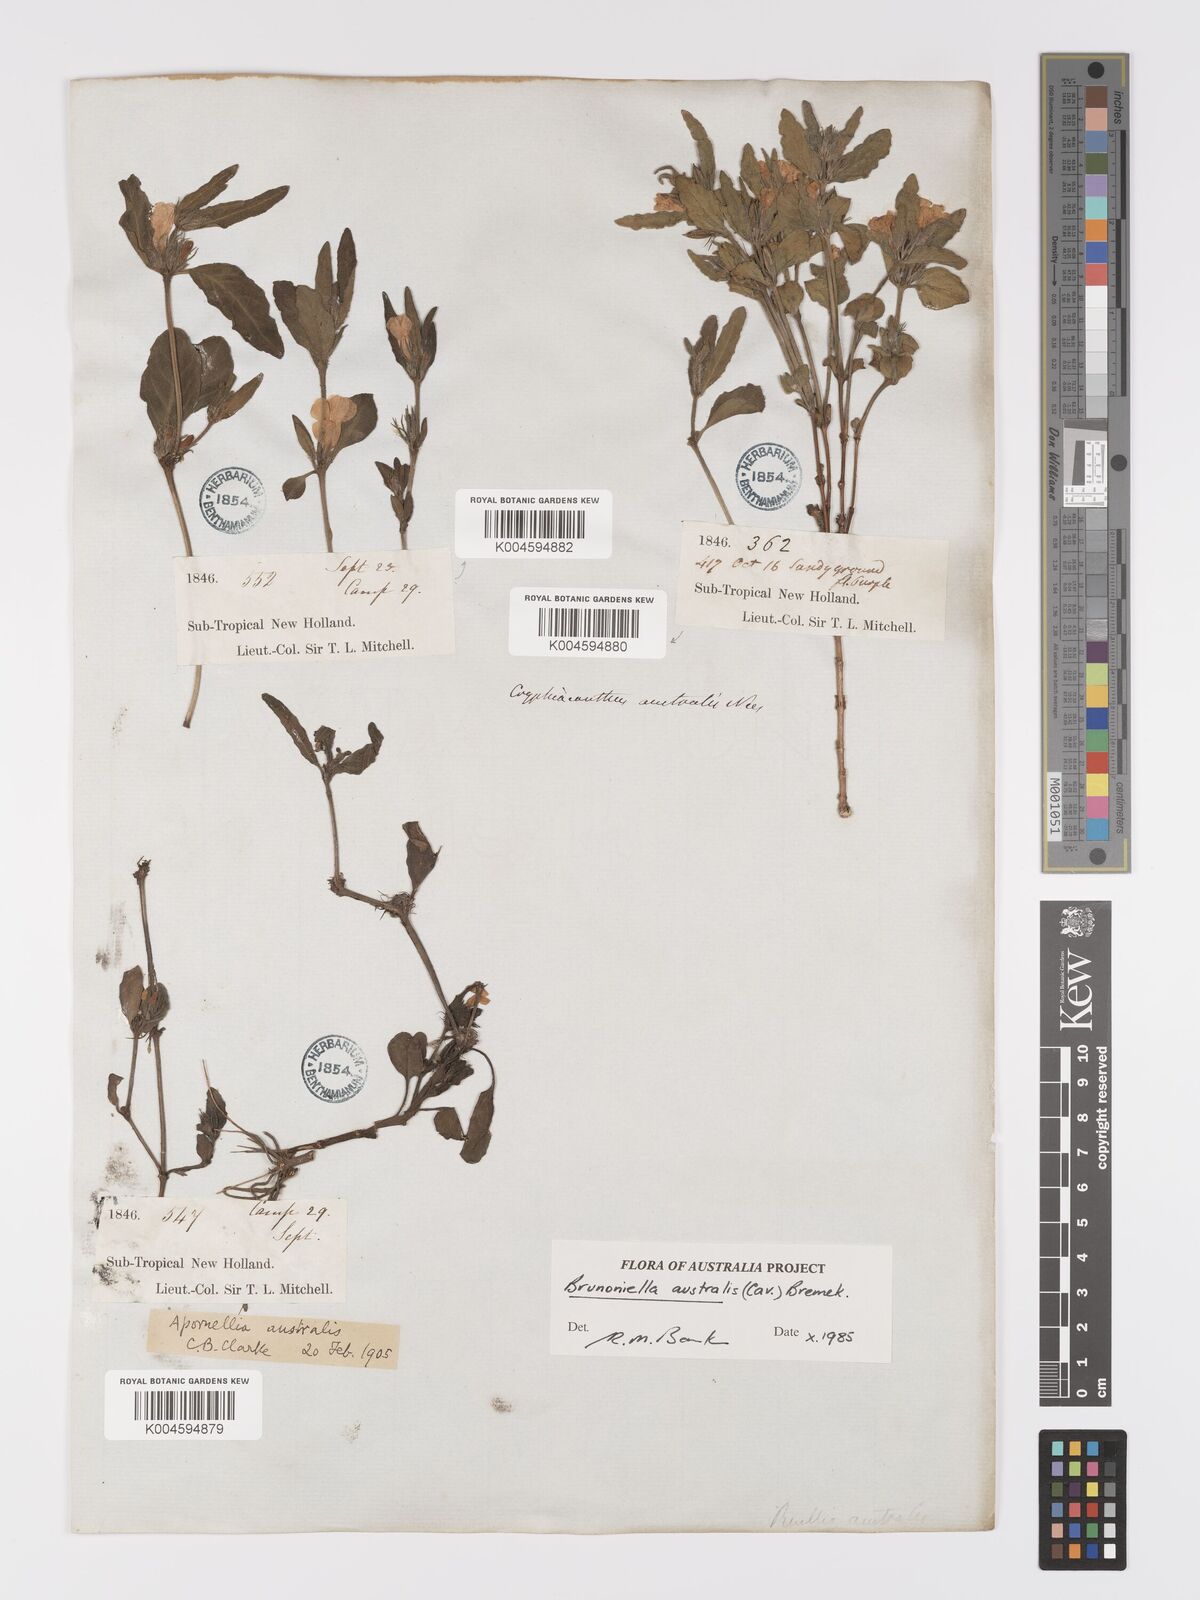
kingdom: Plantae
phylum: Tracheophyta
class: Magnoliopsida
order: Lamiales
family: Acanthaceae
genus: Brunoniella
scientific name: Brunoniella australis
